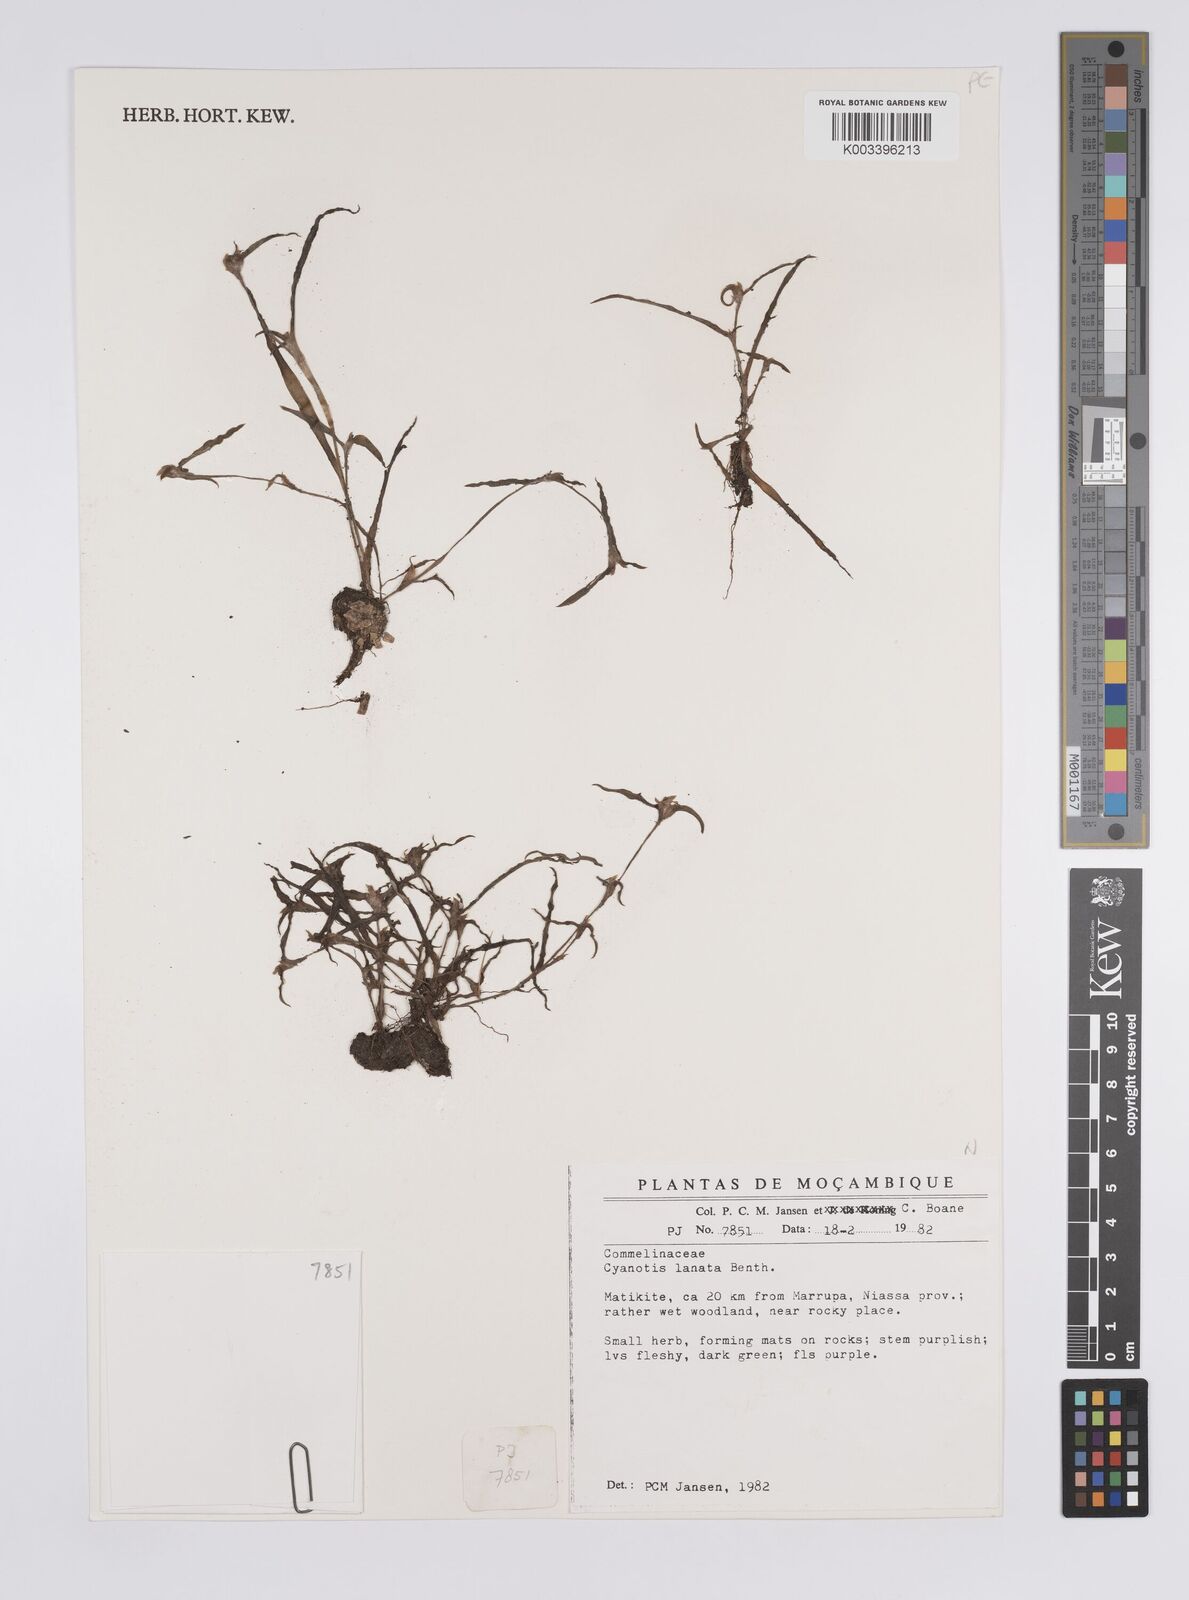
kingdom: Plantae
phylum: Tracheophyta
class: Liliopsida
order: Commelinales
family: Commelinaceae
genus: Cyanotis
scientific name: Cyanotis lanata
